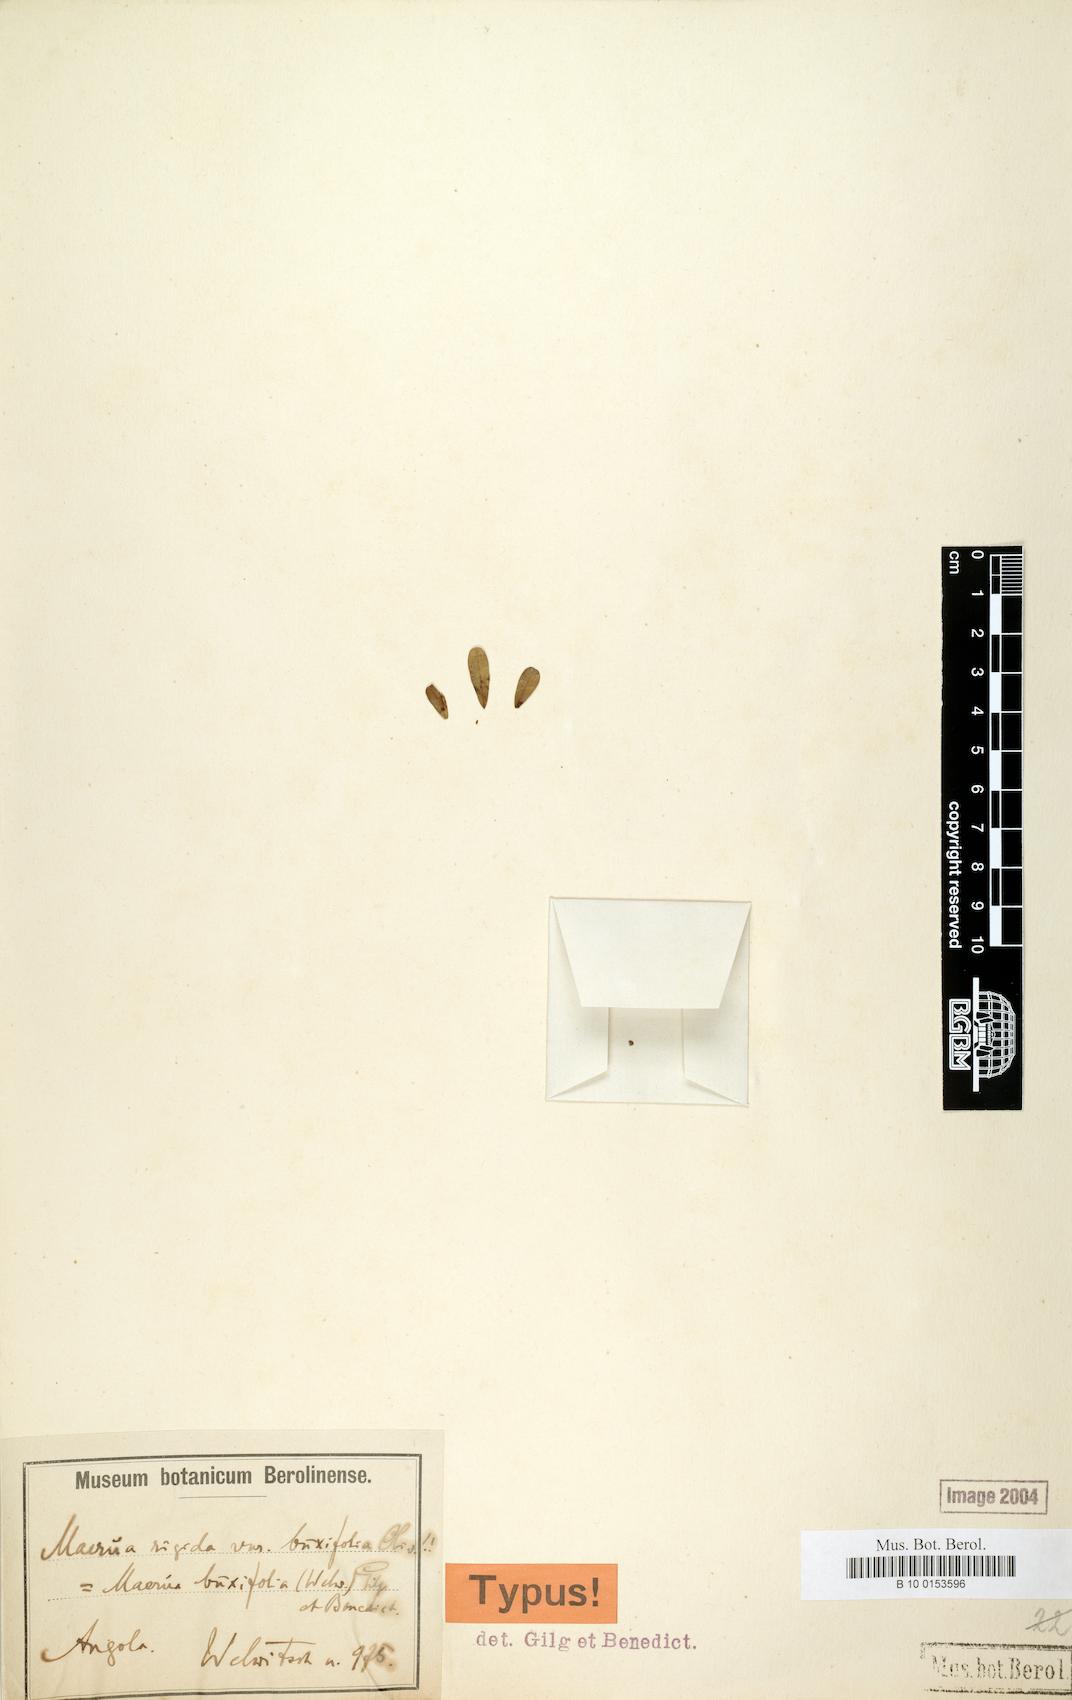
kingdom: Plantae
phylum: Tracheophyta
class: Magnoliopsida
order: Brassicales
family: Capparaceae
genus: Maerua
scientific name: Maerua buxifolia
